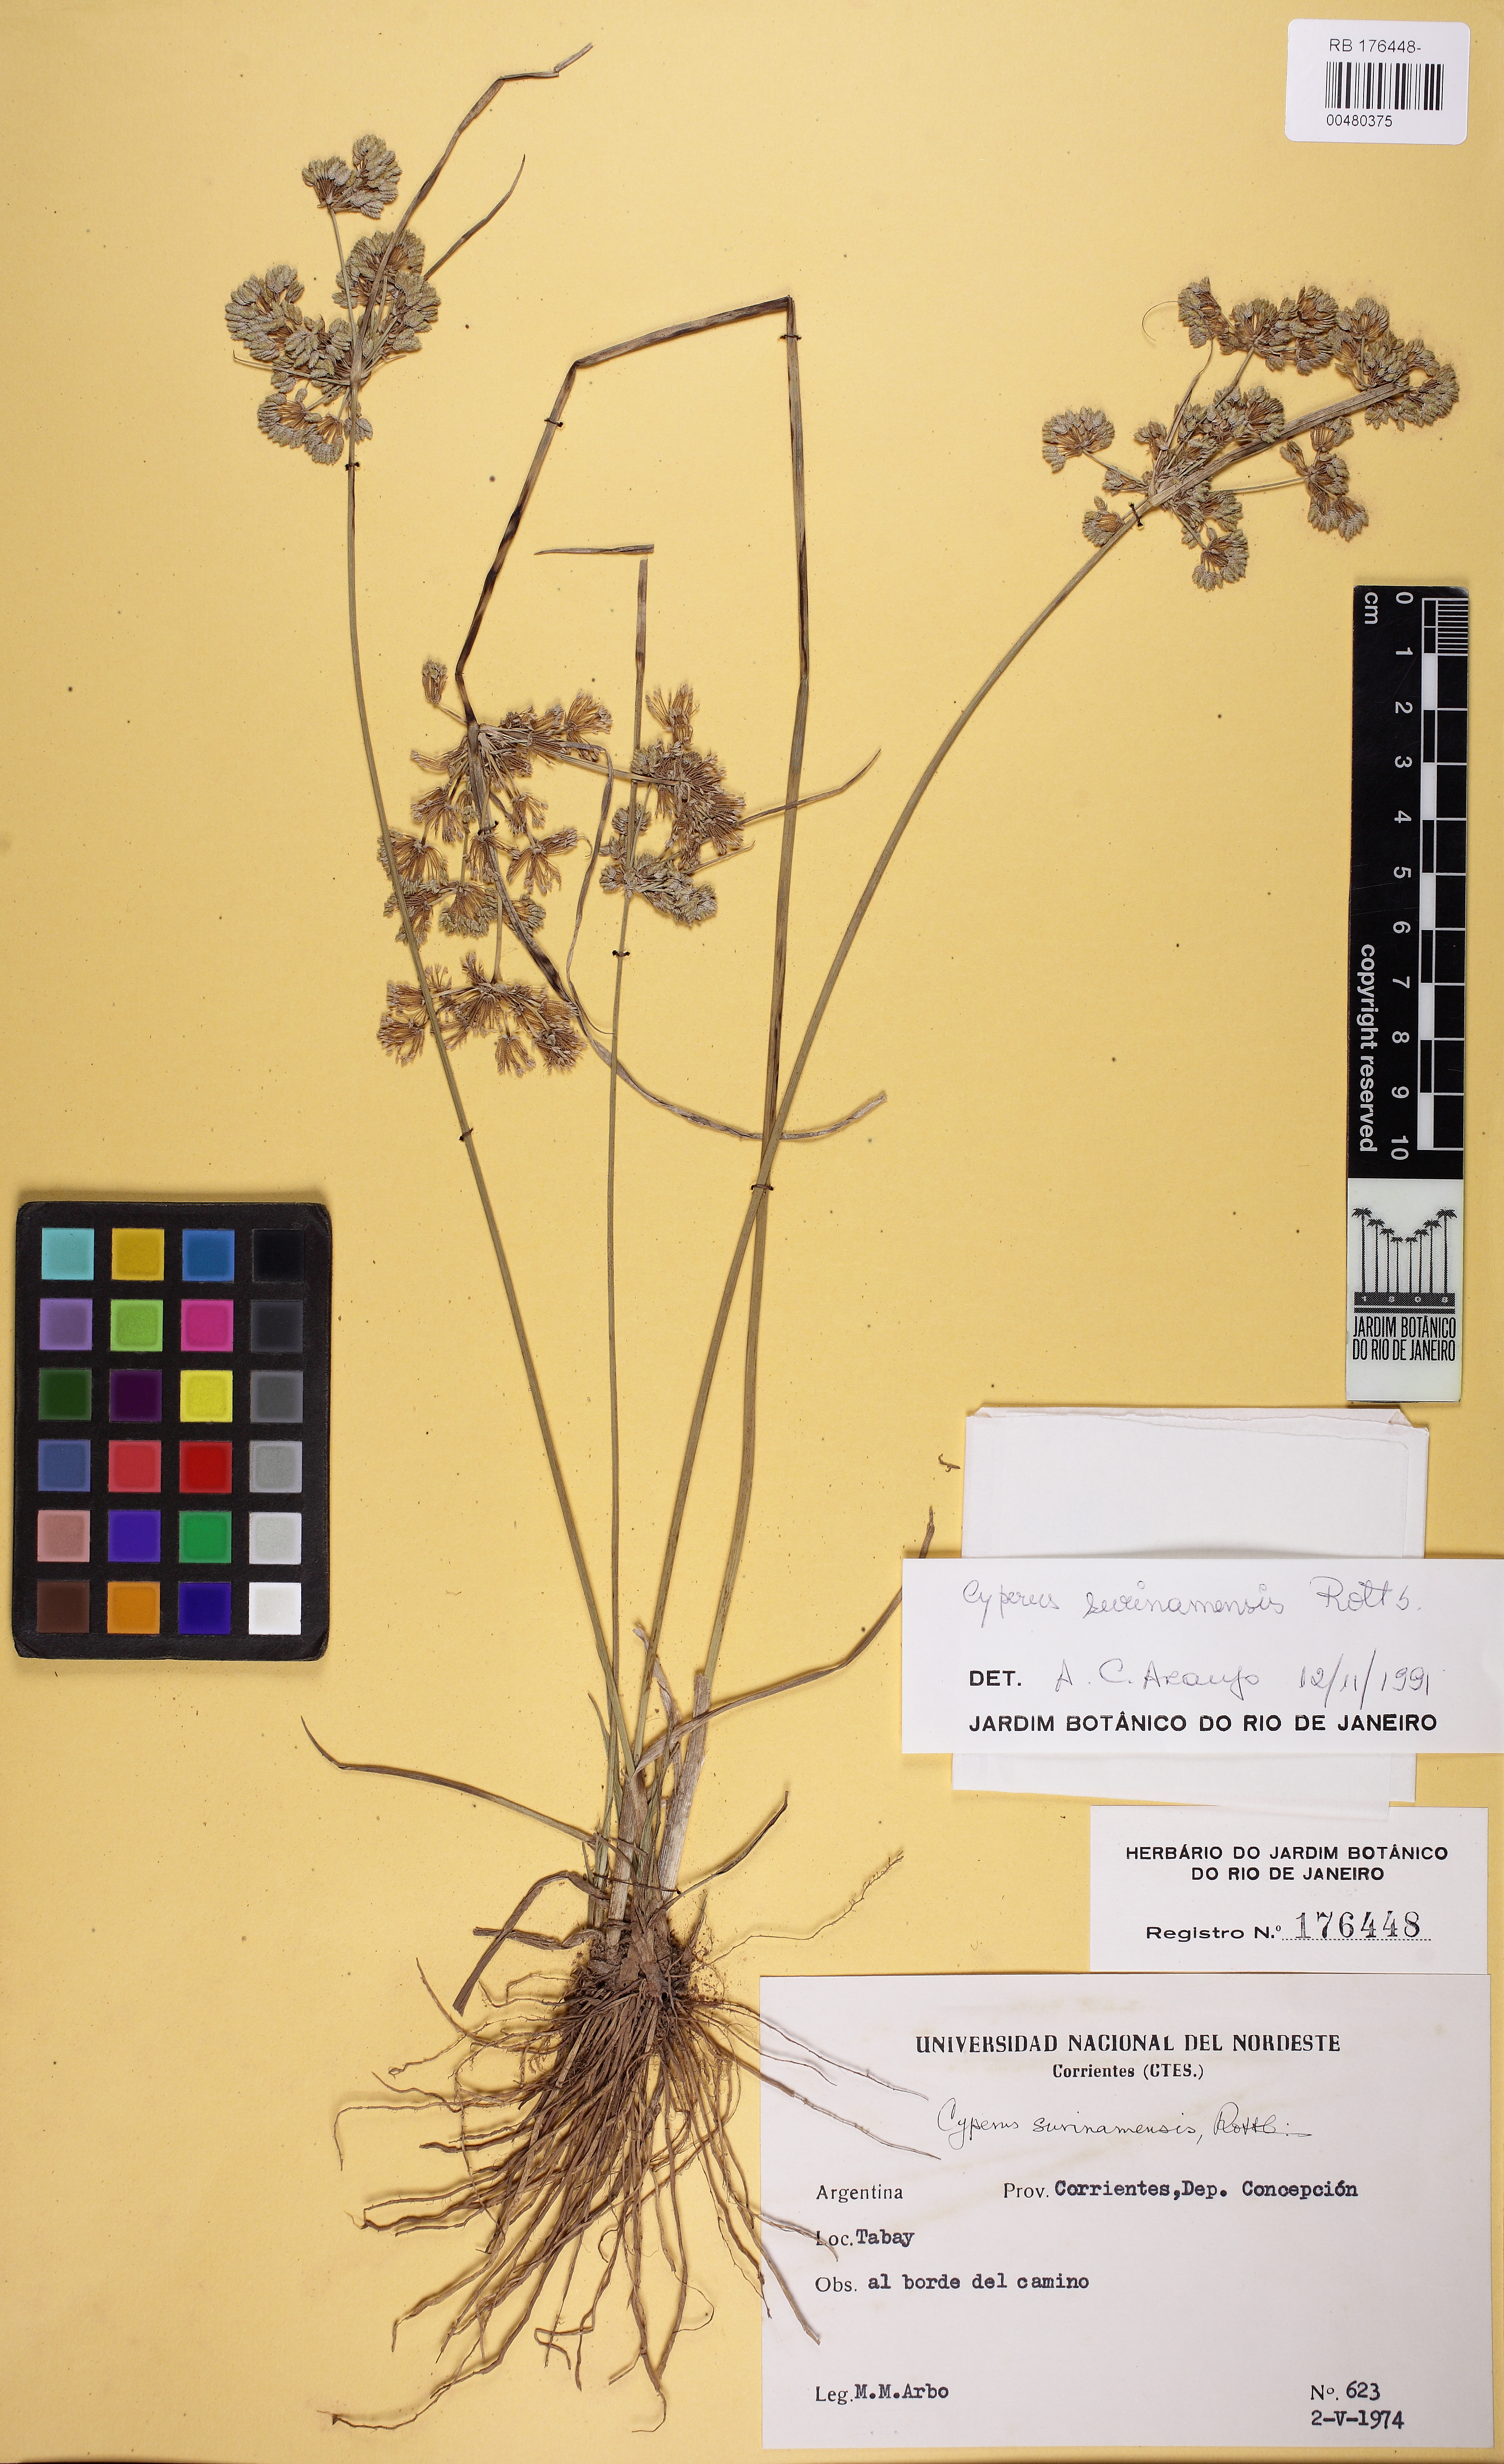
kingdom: Plantae
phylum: Tracheophyta
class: Liliopsida
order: Poales
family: Cyperaceae
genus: Cyperus
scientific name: Cyperus surinamensis
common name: Tropical flat sedge
